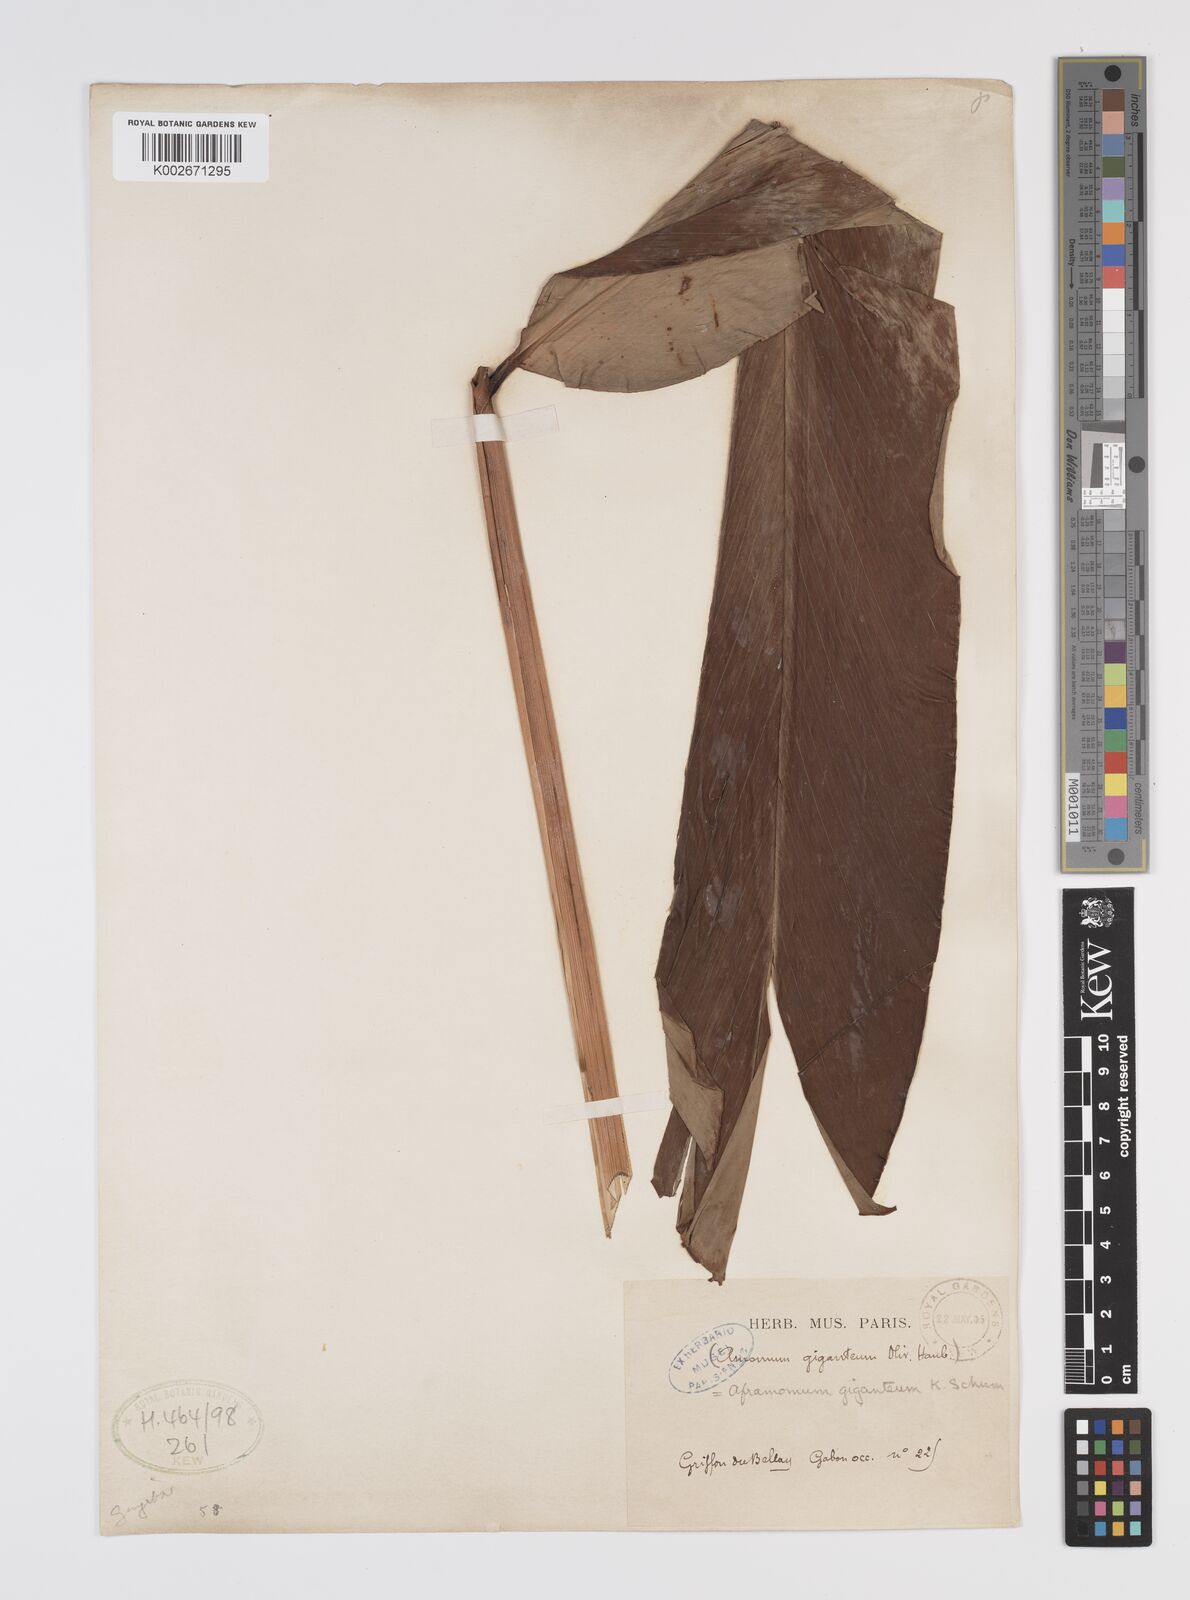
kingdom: Plantae
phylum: Tracheophyta
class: Liliopsida
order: Zingiberales
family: Zingiberaceae
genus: Aframomum
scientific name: Aframomum giganteum
